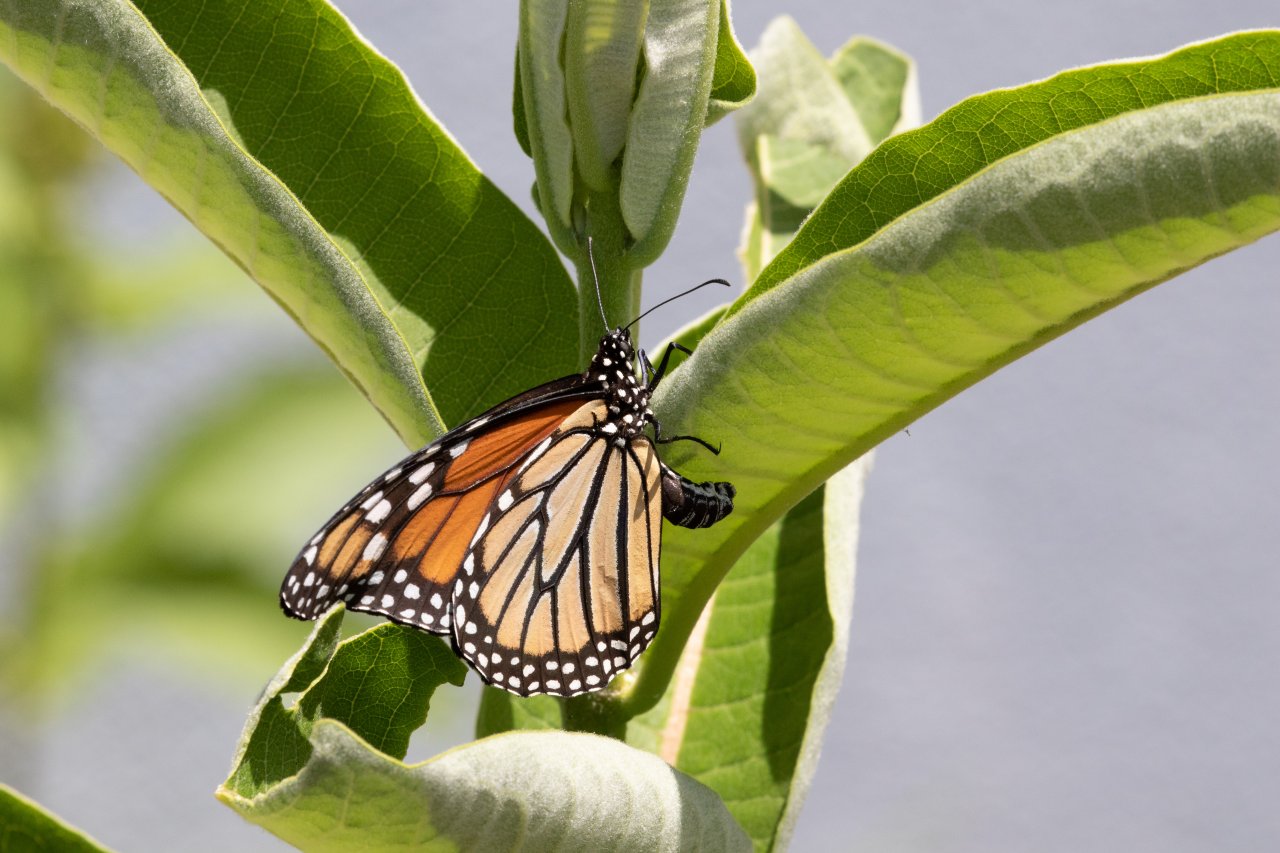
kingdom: Animalia
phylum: Arthropoda
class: Insecta
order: Lepidoptera
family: Nymphalidae
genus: Danaus
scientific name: Danaus plexippus
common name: Monarch
